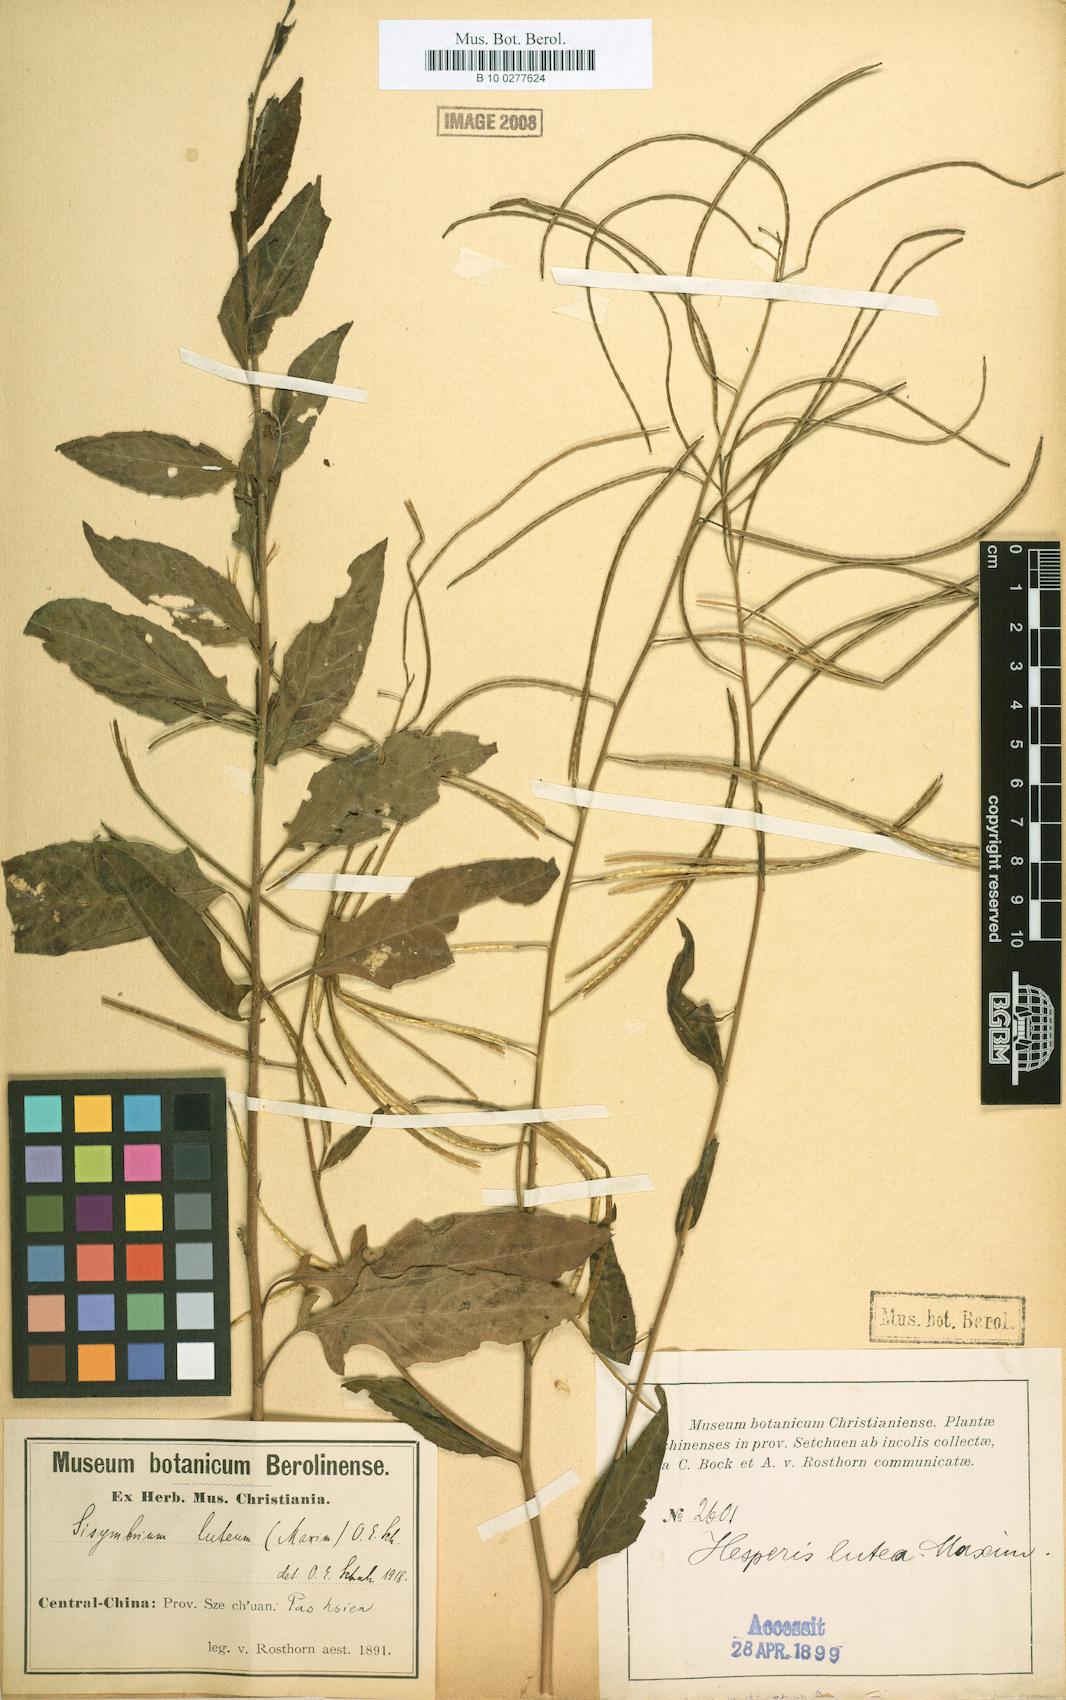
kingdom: Plantae
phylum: Tracheophyta
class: Magnoliopsida
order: Brassicales
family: Brassicaceae
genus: Sisymbrium
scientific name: Sisymbrium luteum
